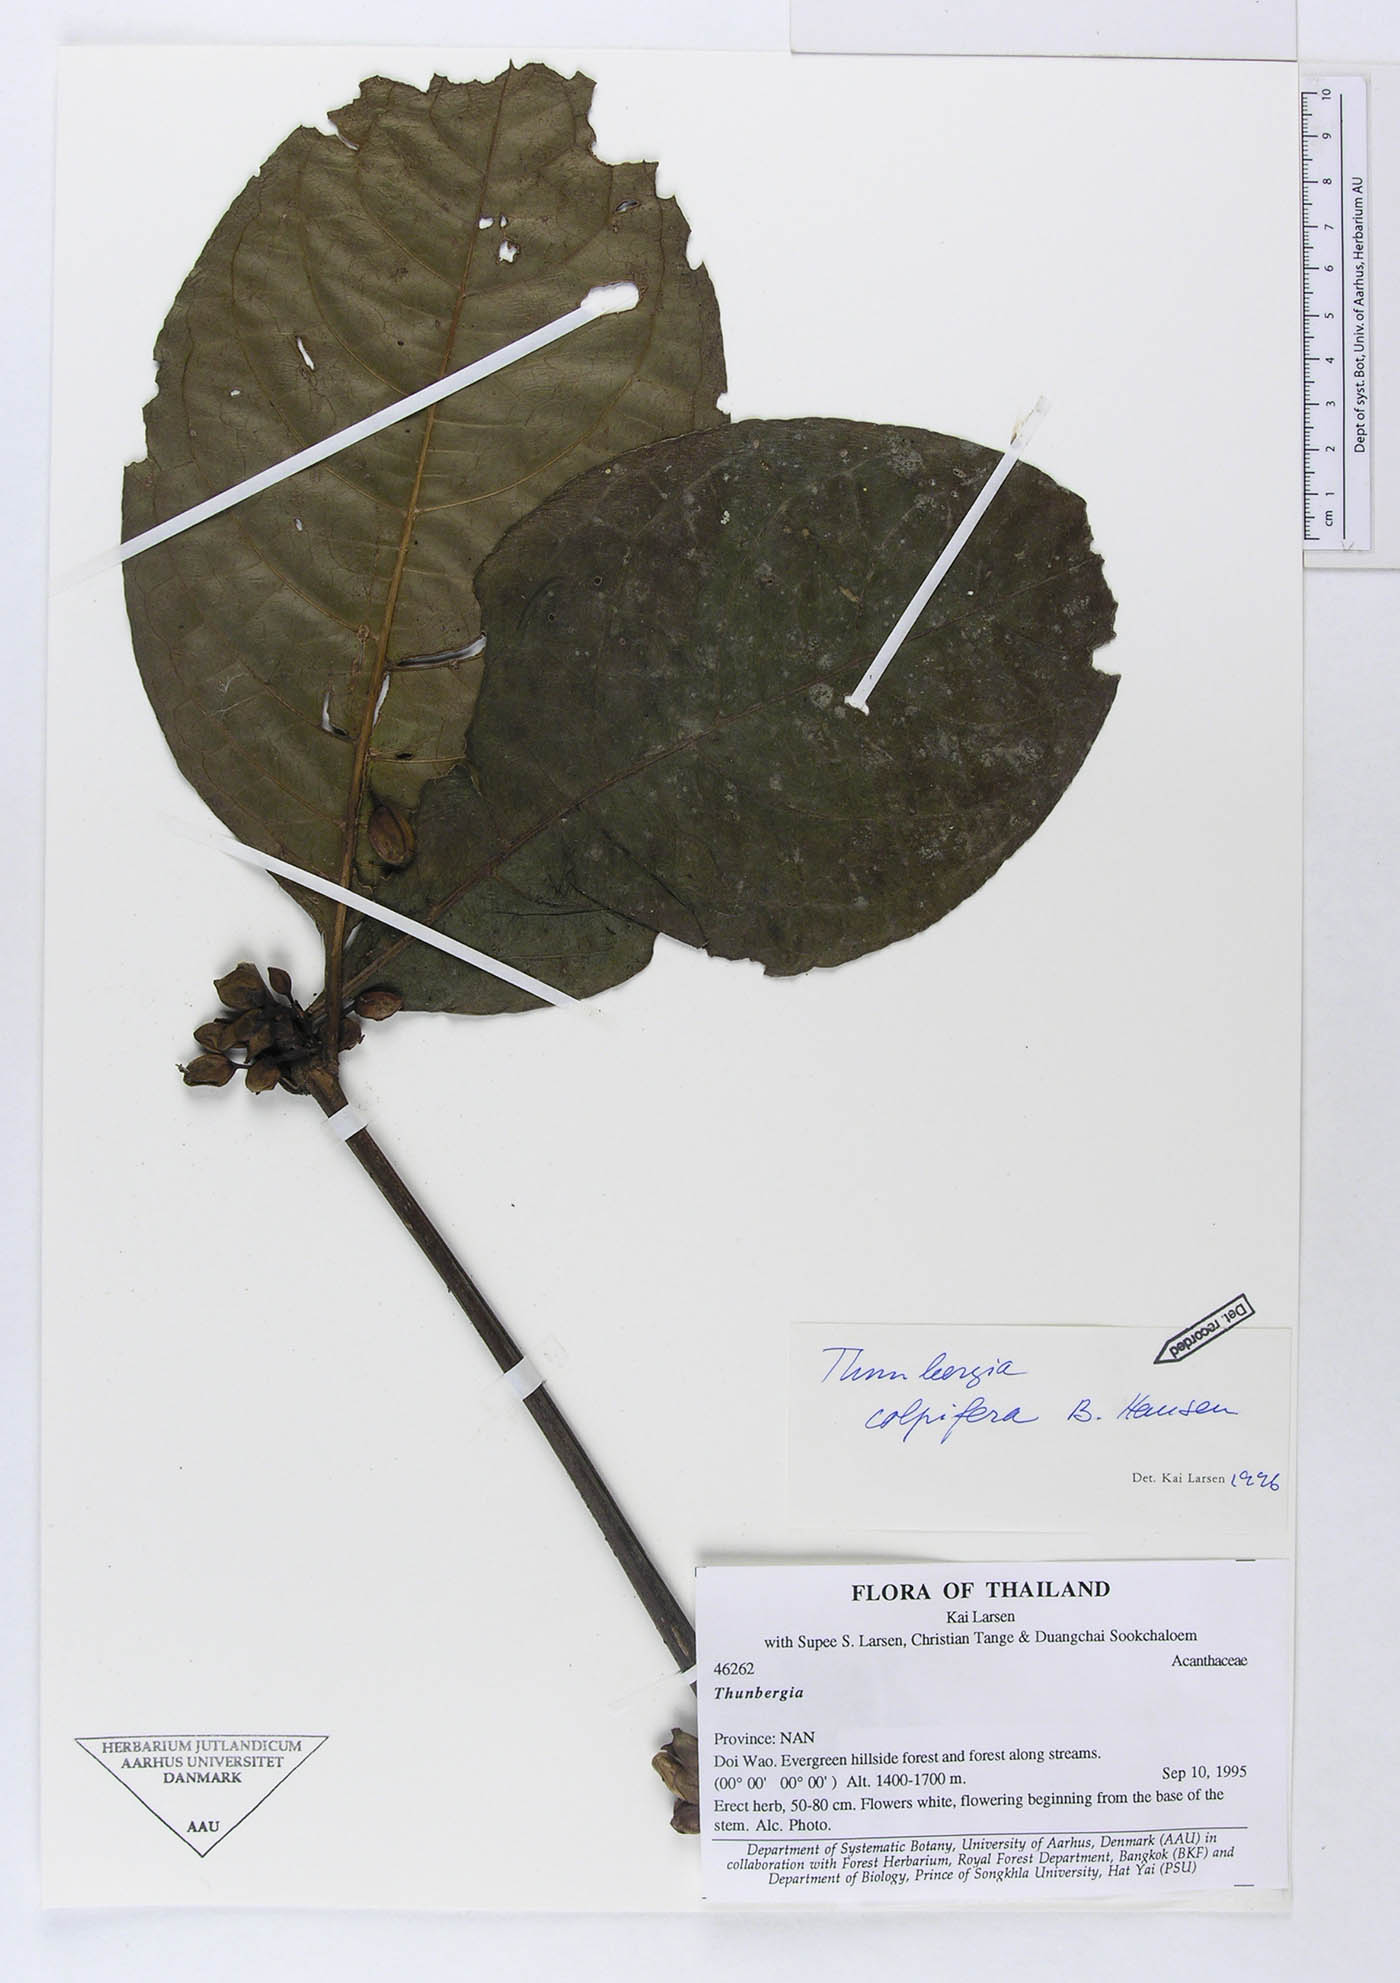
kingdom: Plantae
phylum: Tracheophyta
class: Magnoliopsida
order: Lamiales
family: Acanthaceae
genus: Thunbergia
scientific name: Thunbergia colpifera
